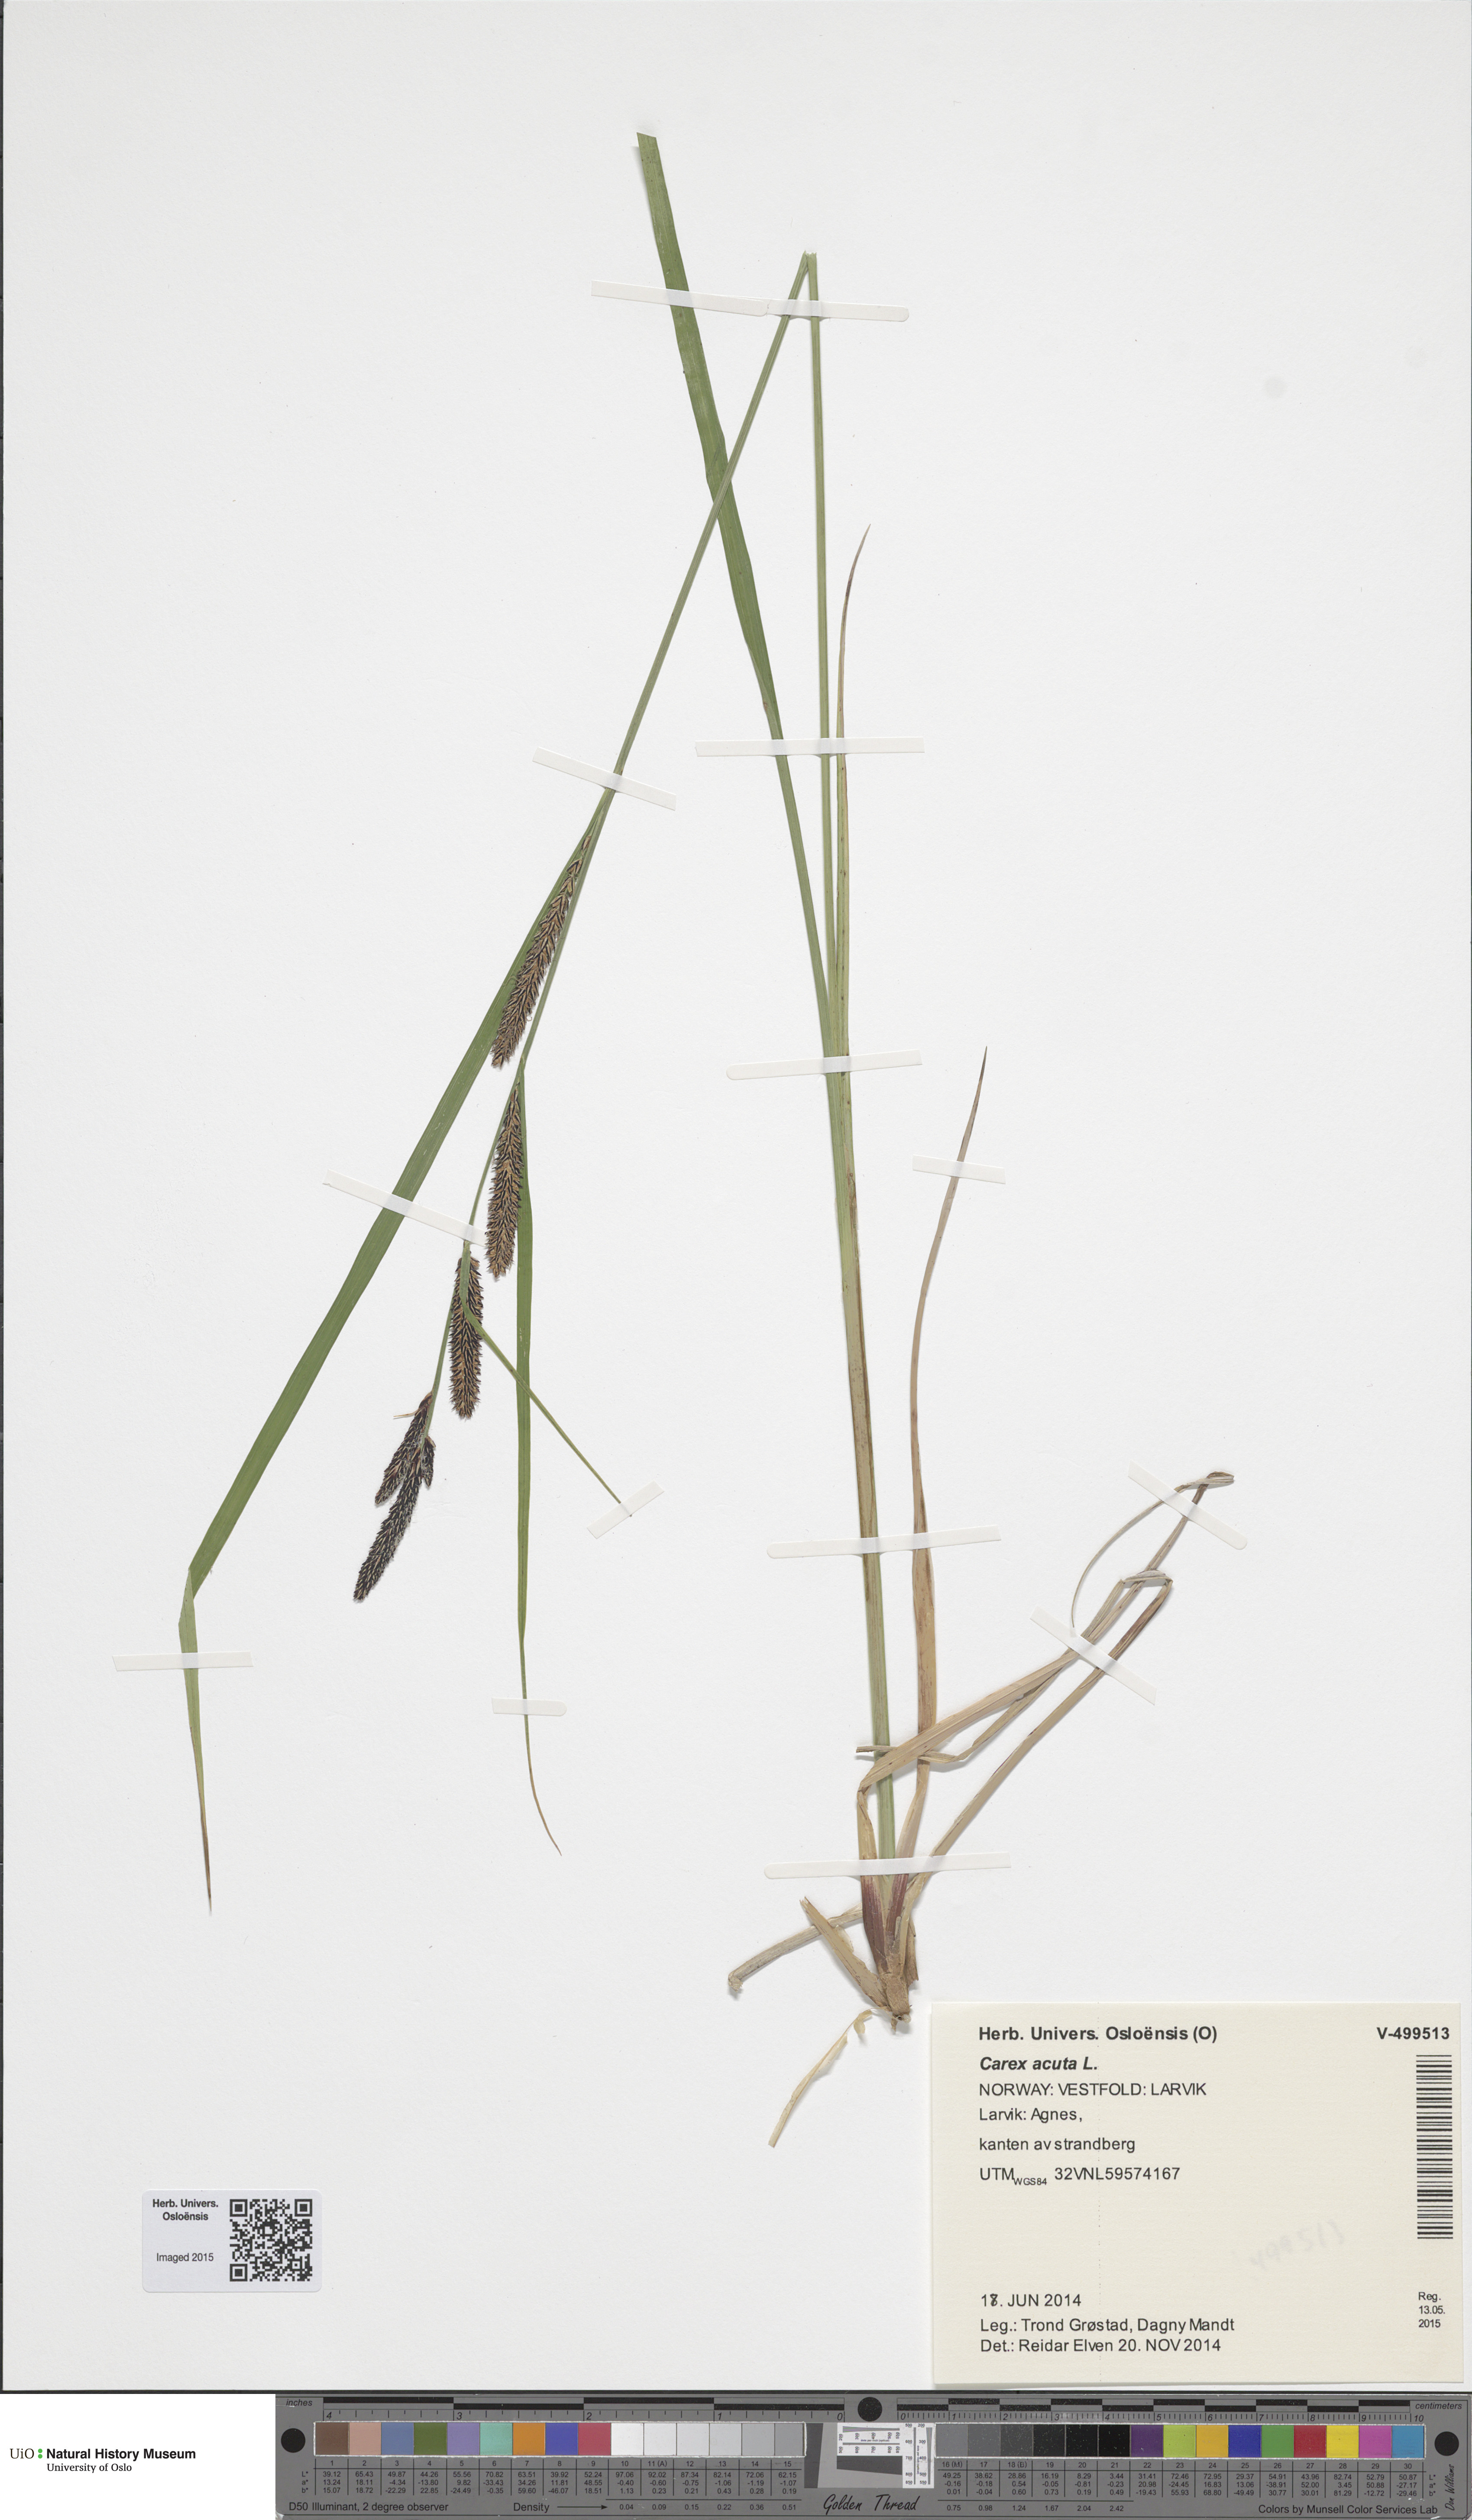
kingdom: Plantae
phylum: Tracheophyta
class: Liliopsida
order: Poales
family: Cyperaceae
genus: Carex
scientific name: Carex acuta
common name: Slender tufted-sedge
